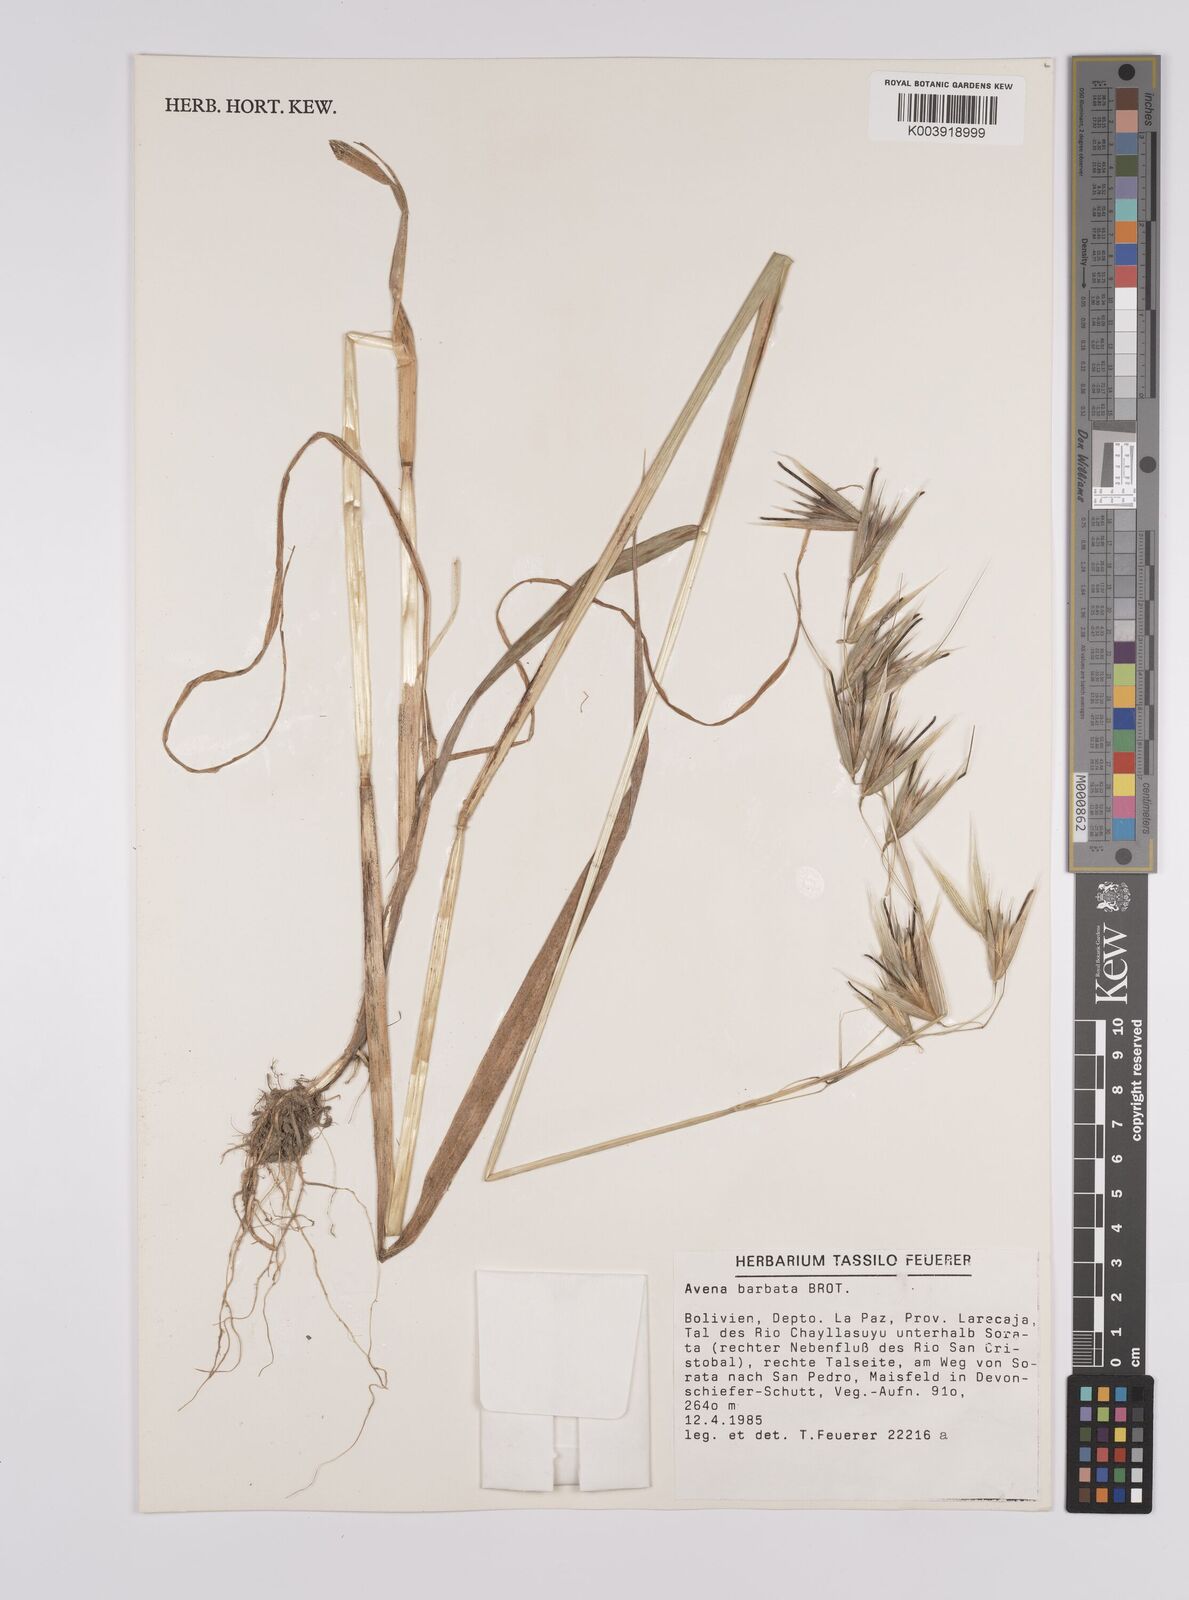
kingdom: Plantae
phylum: Tracheophyta
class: Liliopsida
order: Poales
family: Poaceae
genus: Avena
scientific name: Avena sterilis
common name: Animated oat
